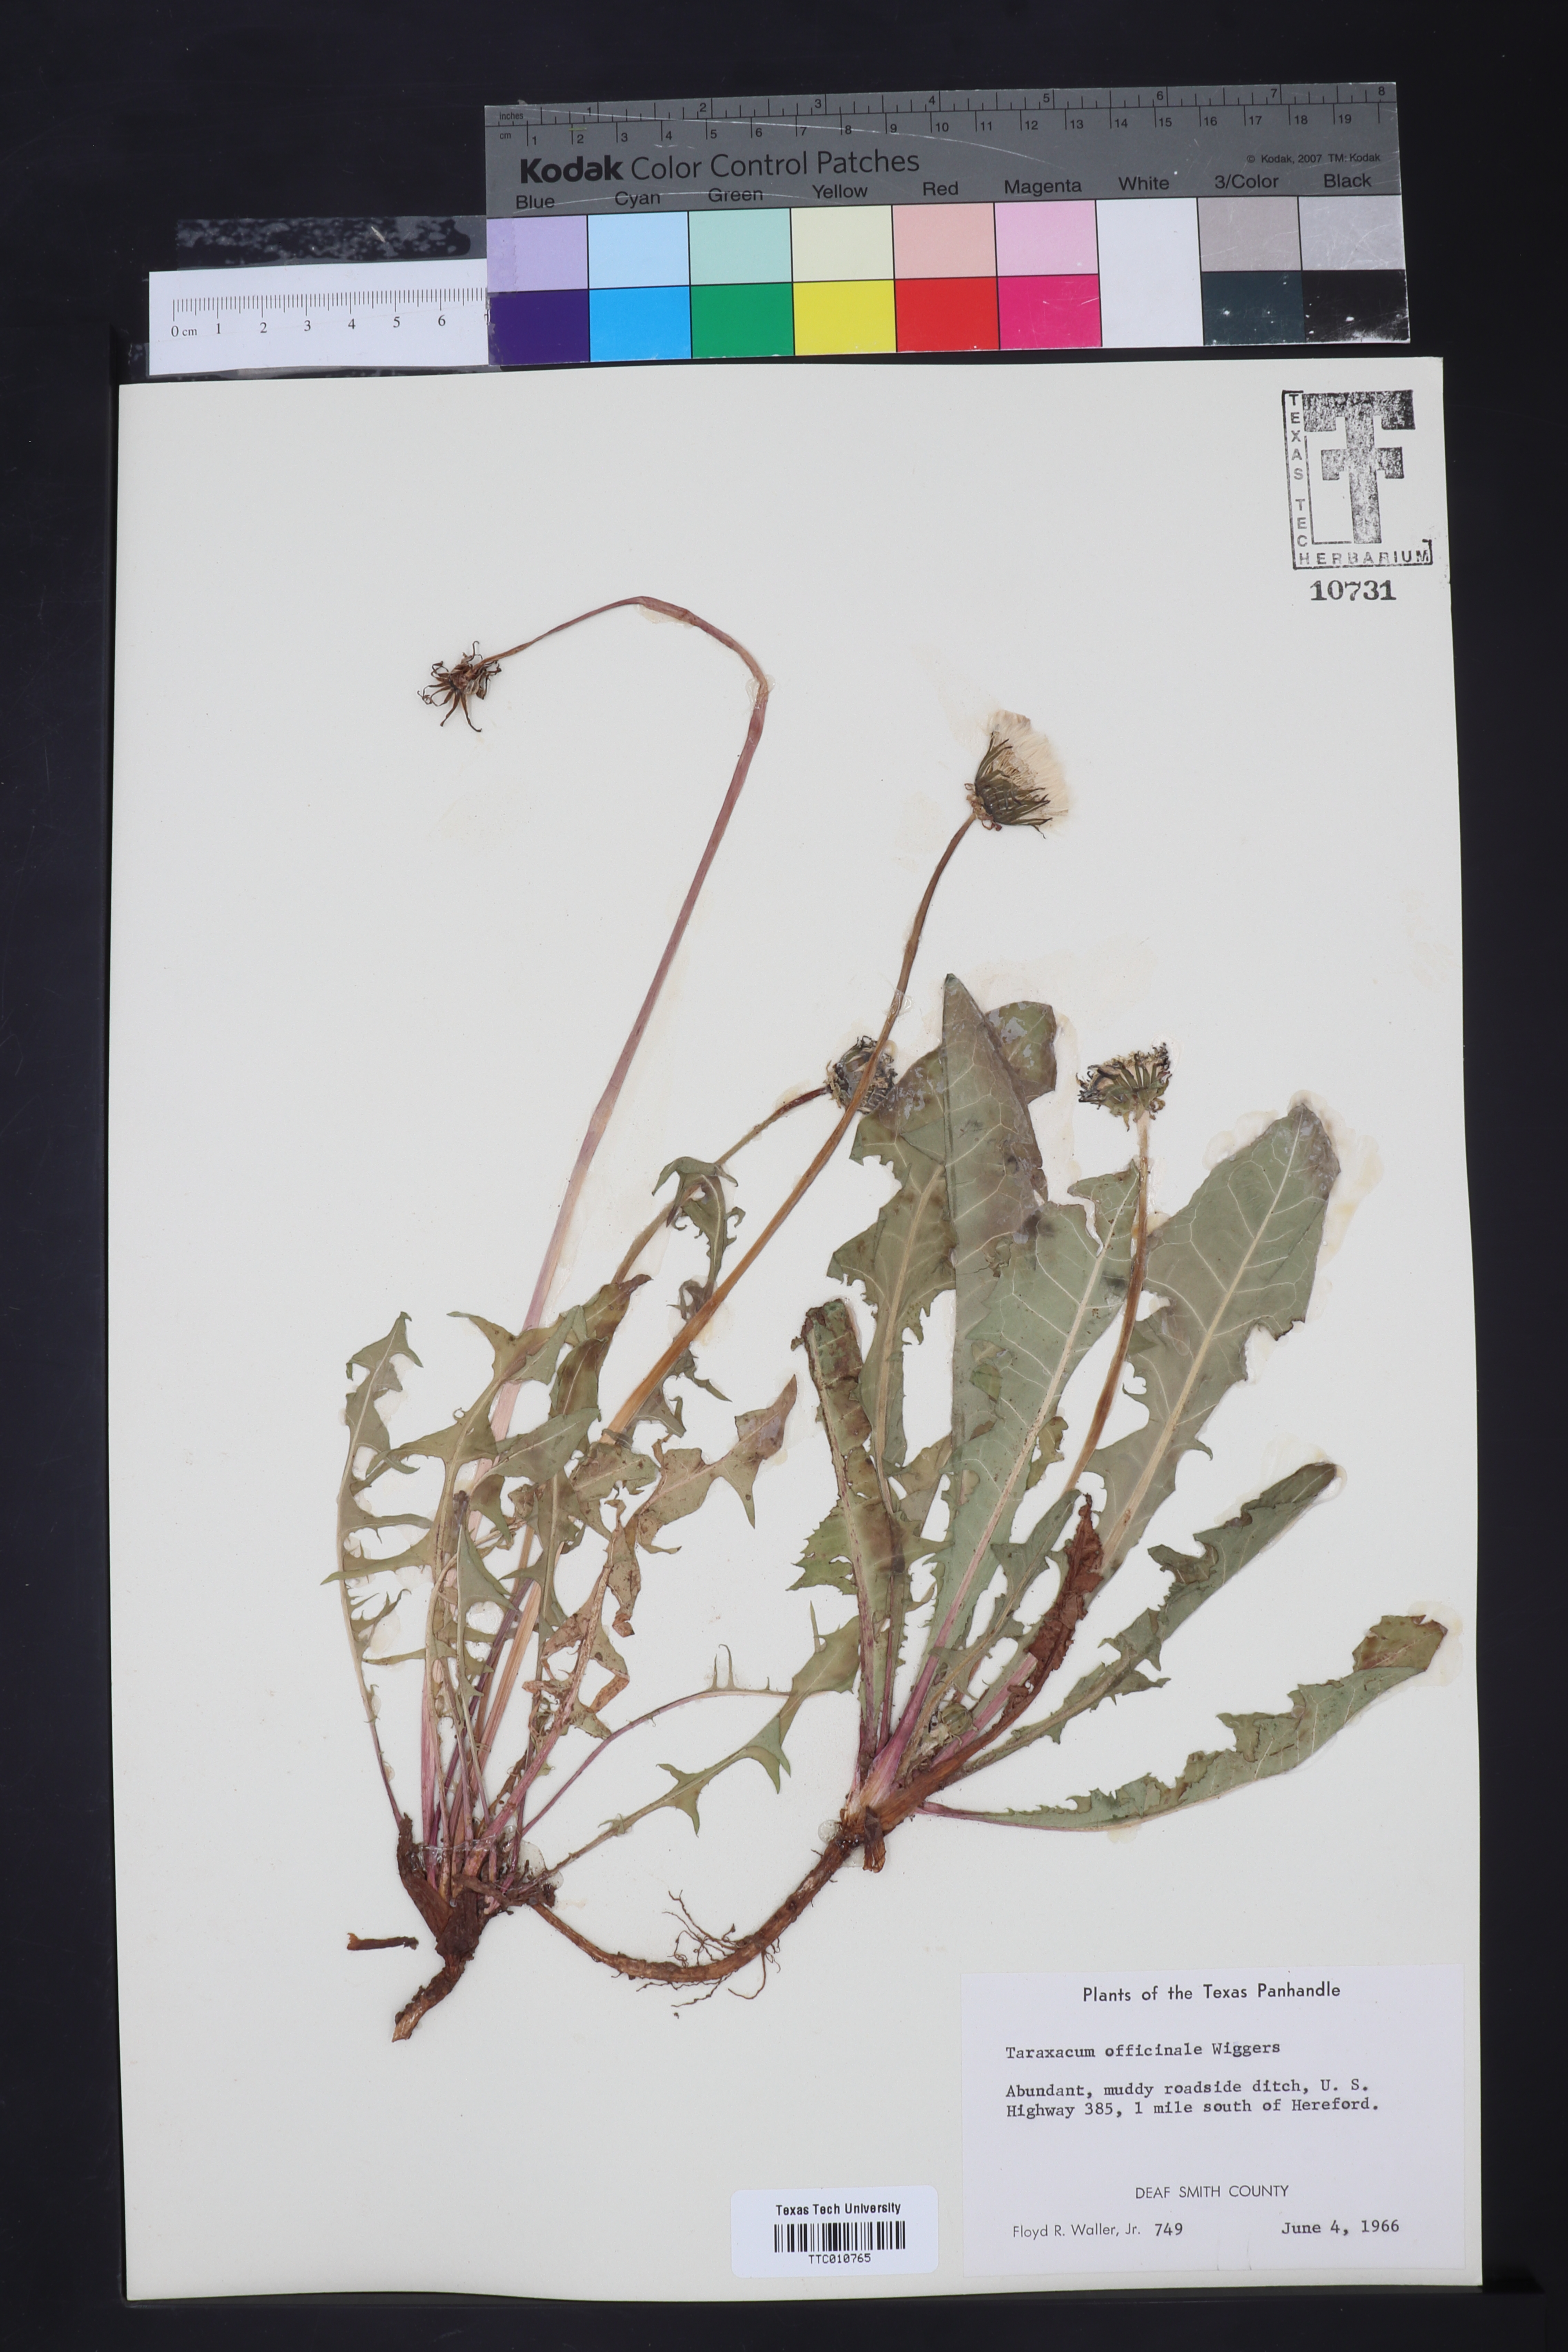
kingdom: Plantae
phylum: Tracheophyta
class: Magnoliopsida
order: Asterales
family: Asteraceae
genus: Taraxacum
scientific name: Taraxacum erythrospermum
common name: Rock dandelion
